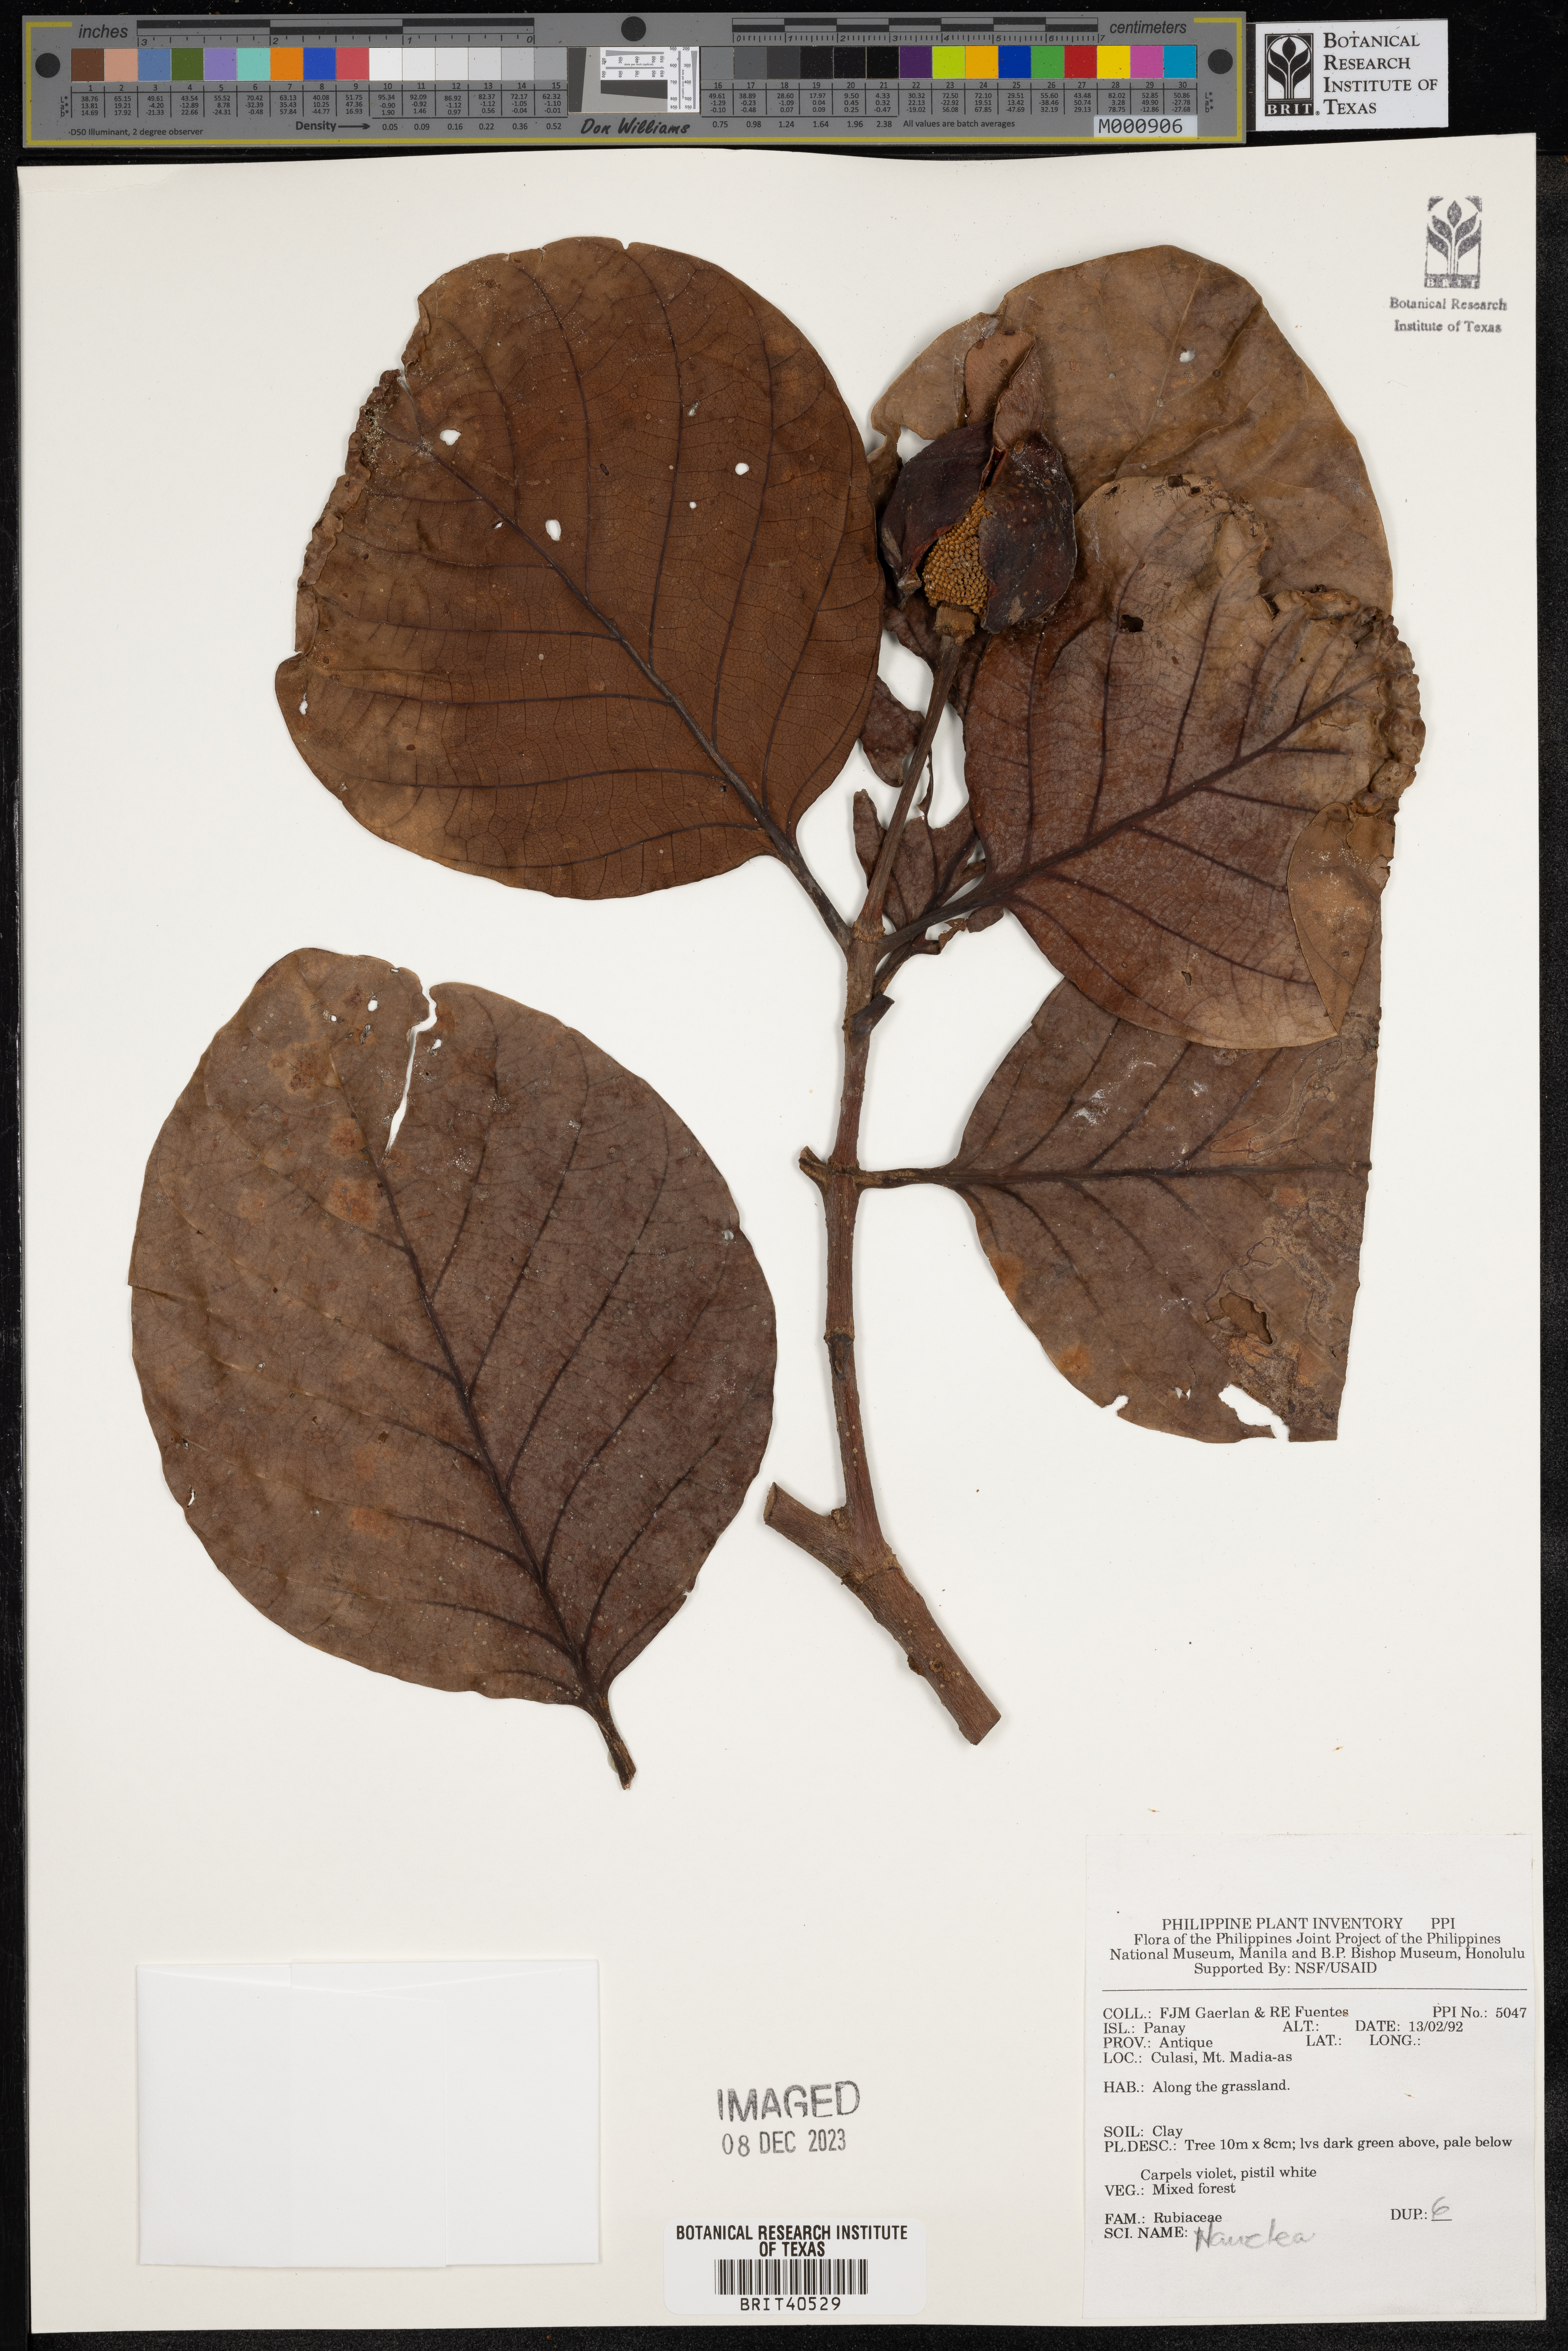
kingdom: Plantae
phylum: Tracheophyta
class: Magnoliopsida
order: Gentianales
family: Rubiaceae
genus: Nauclea
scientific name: Nauclea
